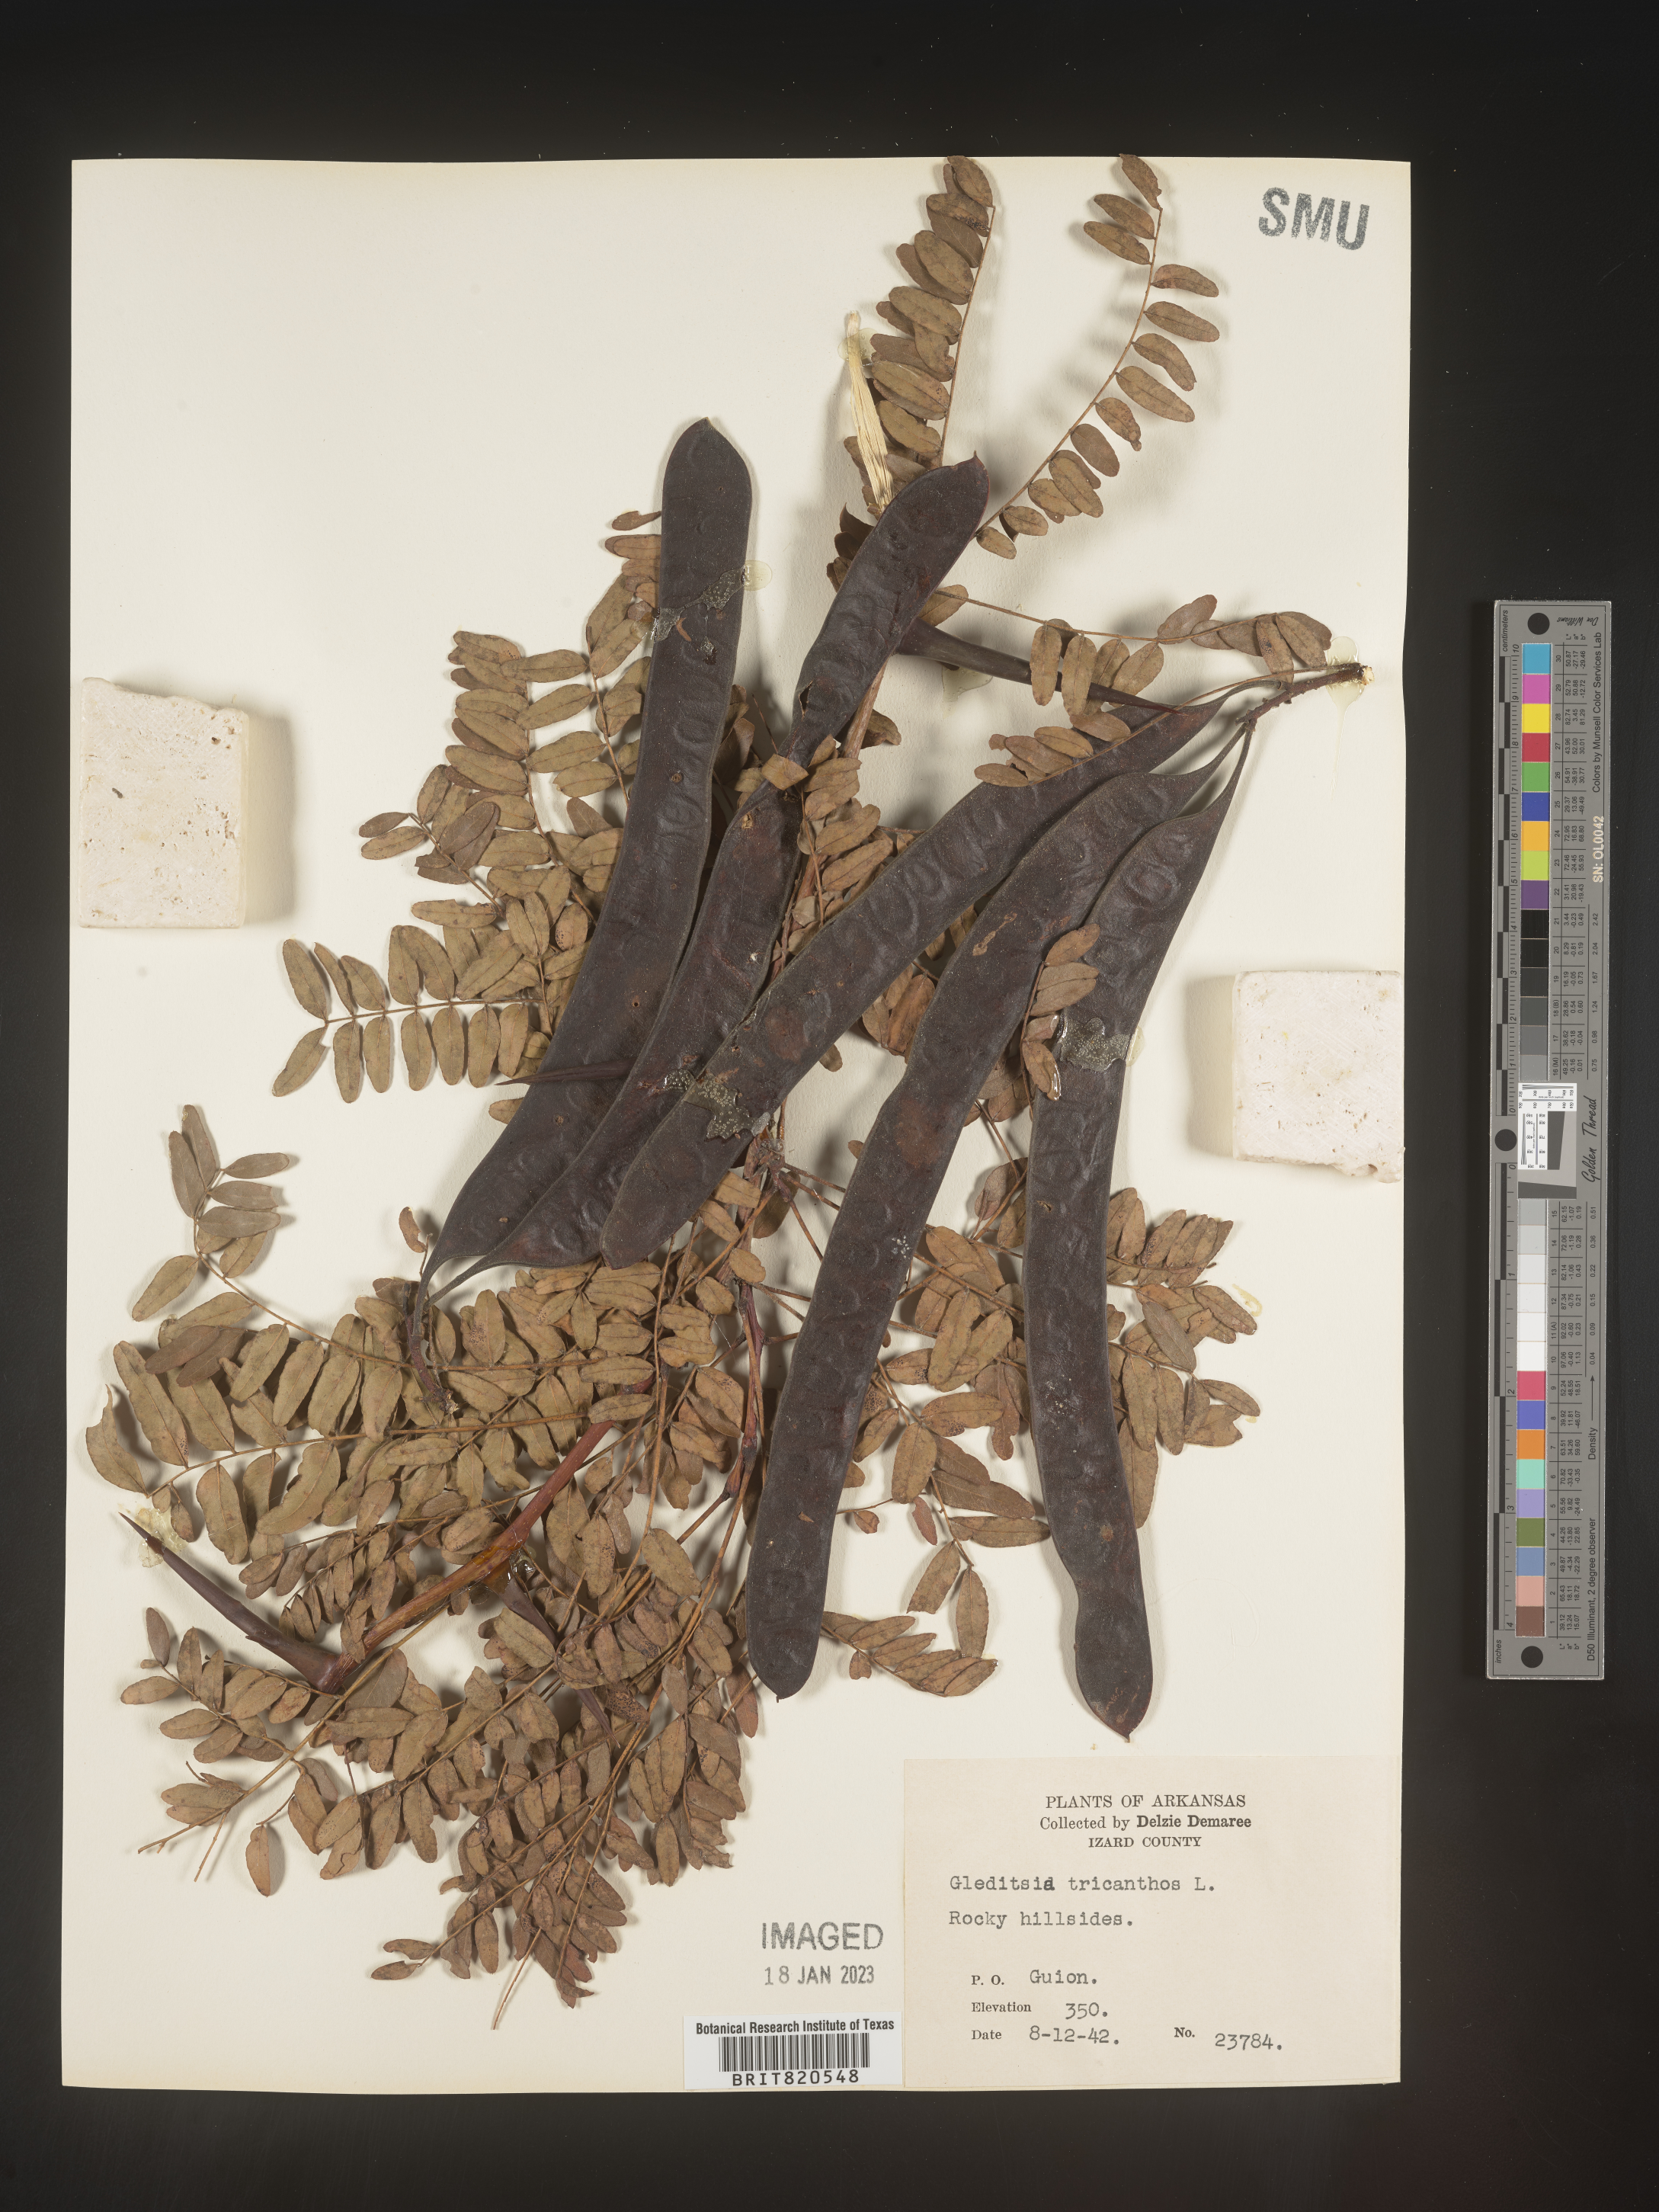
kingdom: Plantae
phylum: Tracheophyta
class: Magnoliopsida
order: Fabales
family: Fabaceae
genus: Gleditsia
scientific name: Gleditsia triacanthos
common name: Common honeylocust
